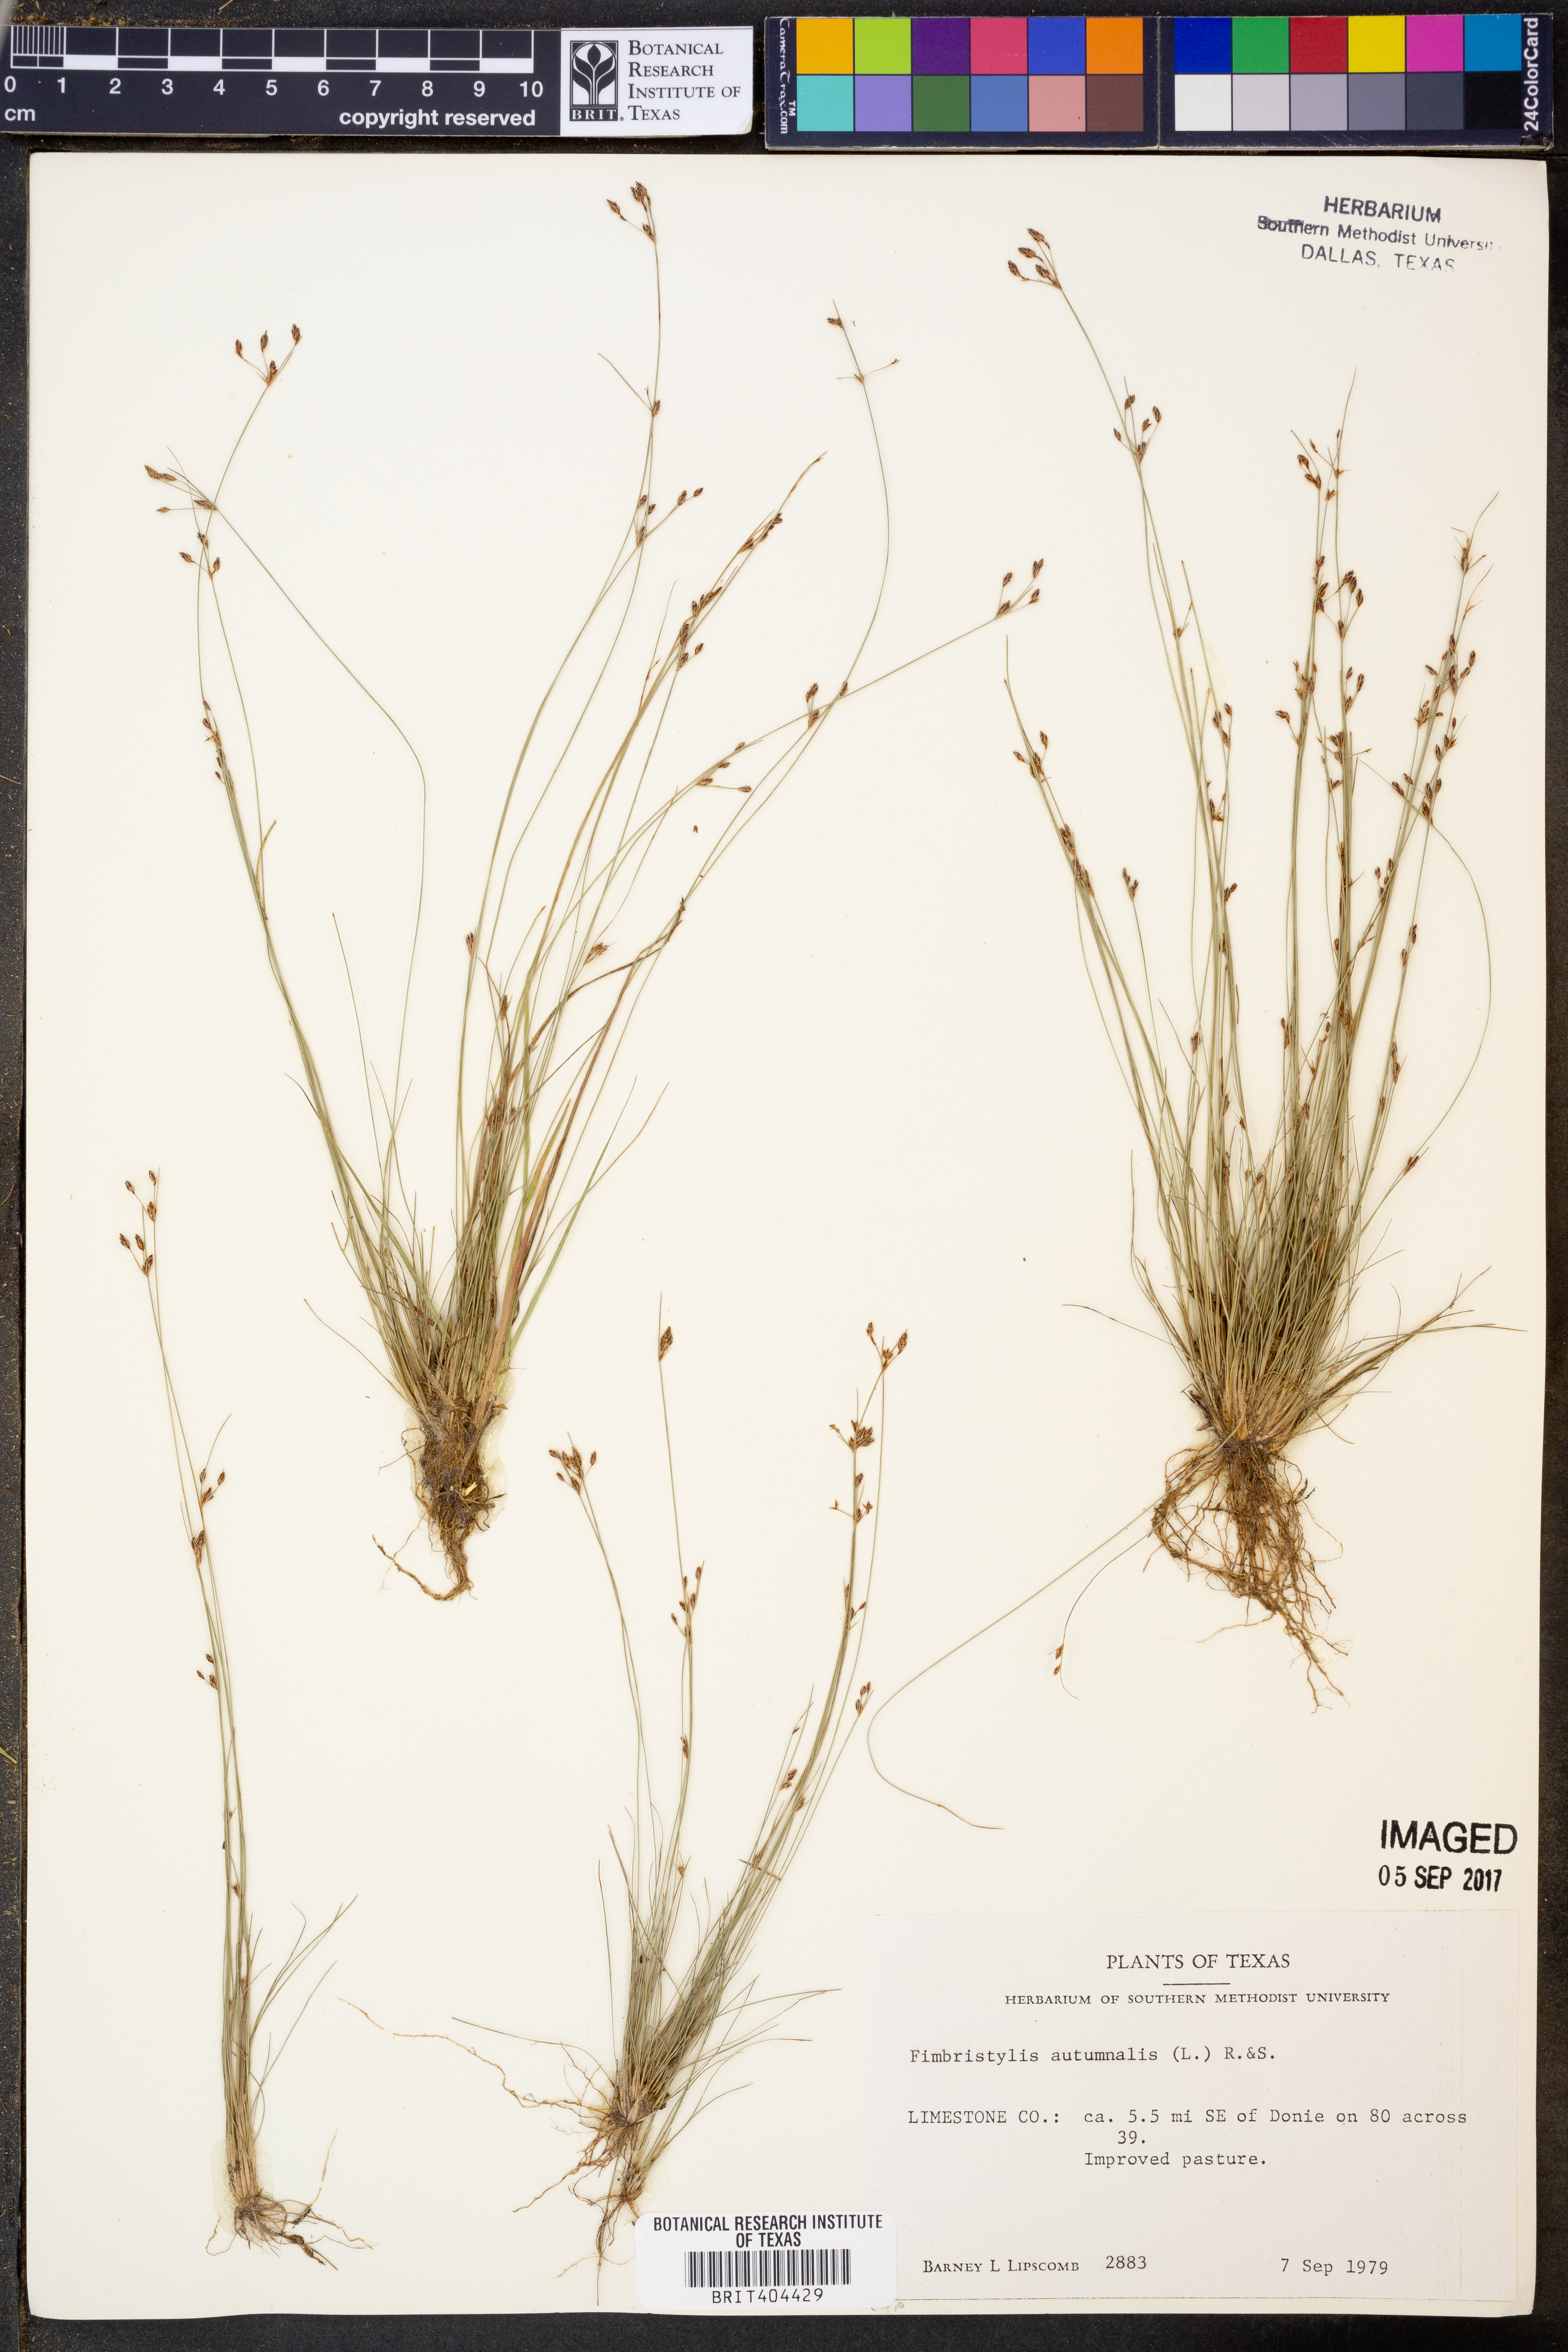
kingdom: Plantae
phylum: Tracheophyta
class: Liliopsida
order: Poales
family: Cyperaceae
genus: Fimbristylis
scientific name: Fimbristylis autumnalis
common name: Slender fimbristylis
